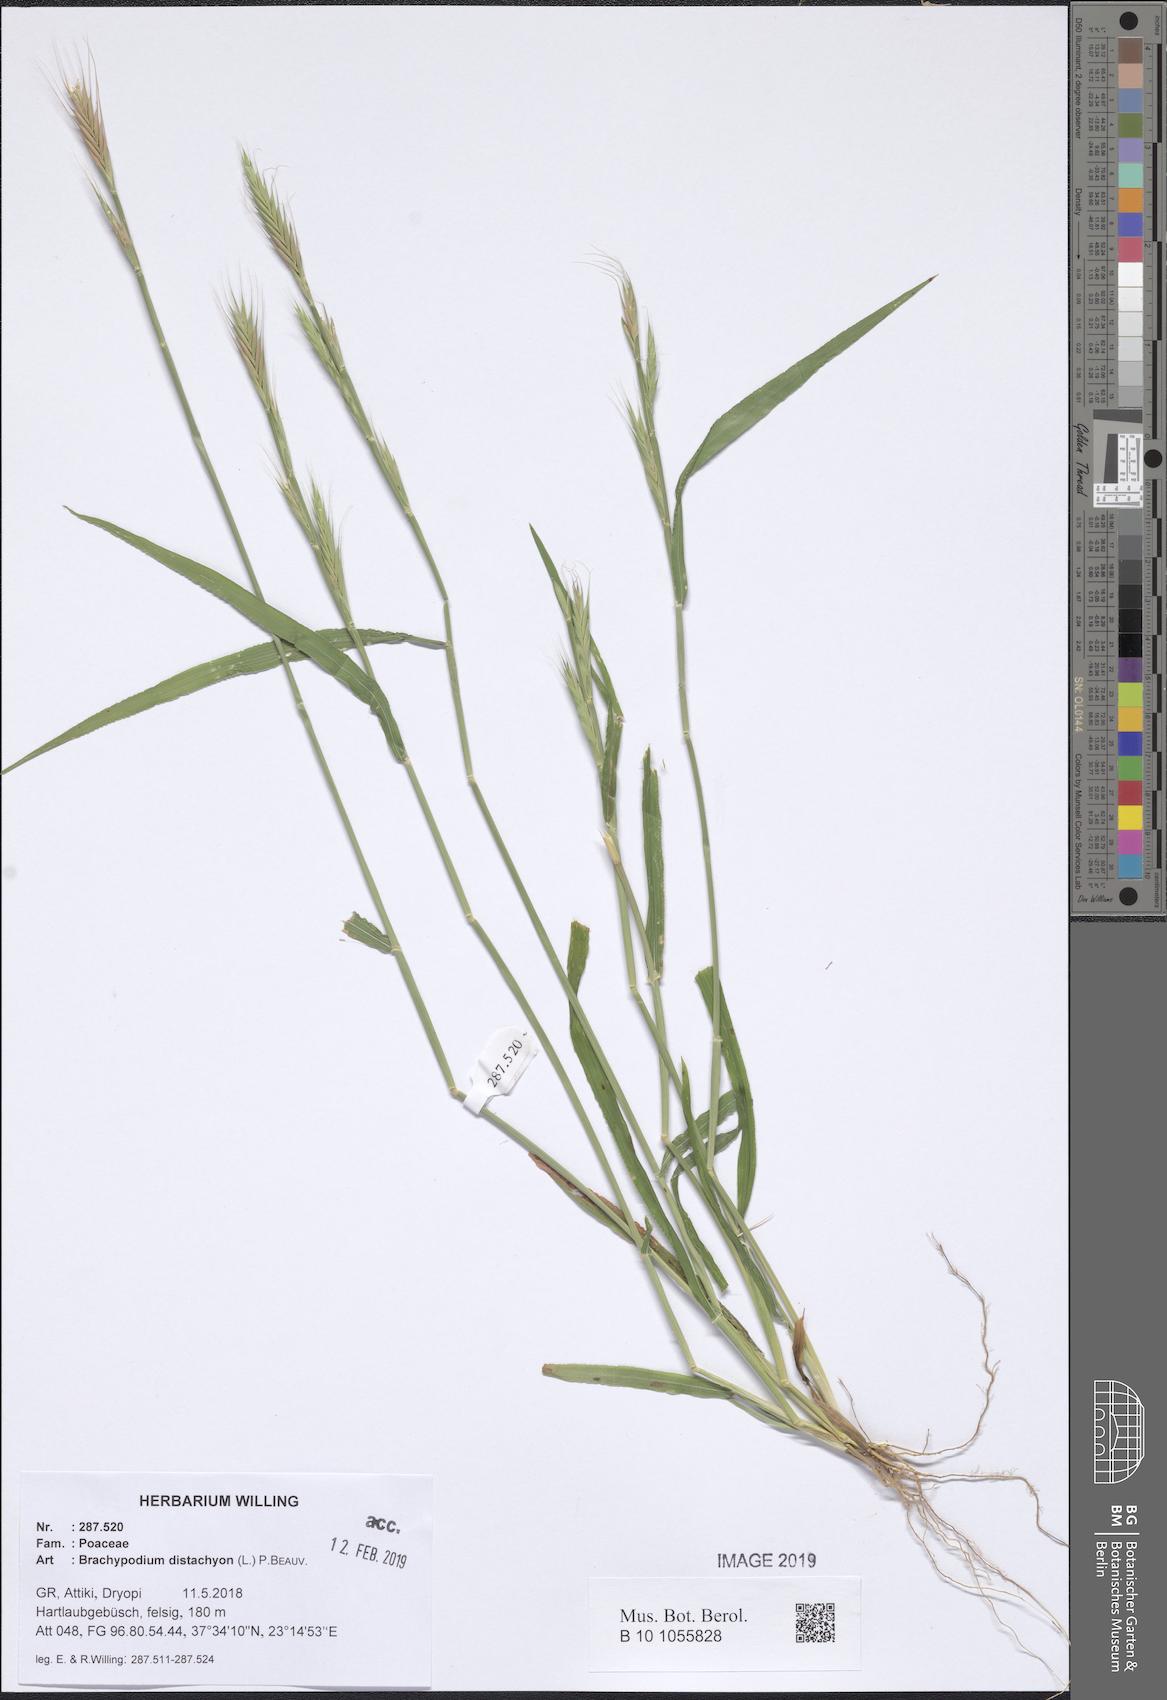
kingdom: Plantae
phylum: Tracheophyta
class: Liliopsida
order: Poales
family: Poaceae
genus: Brachypodium
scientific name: Brachypodium distachyon
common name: Stiff brome
